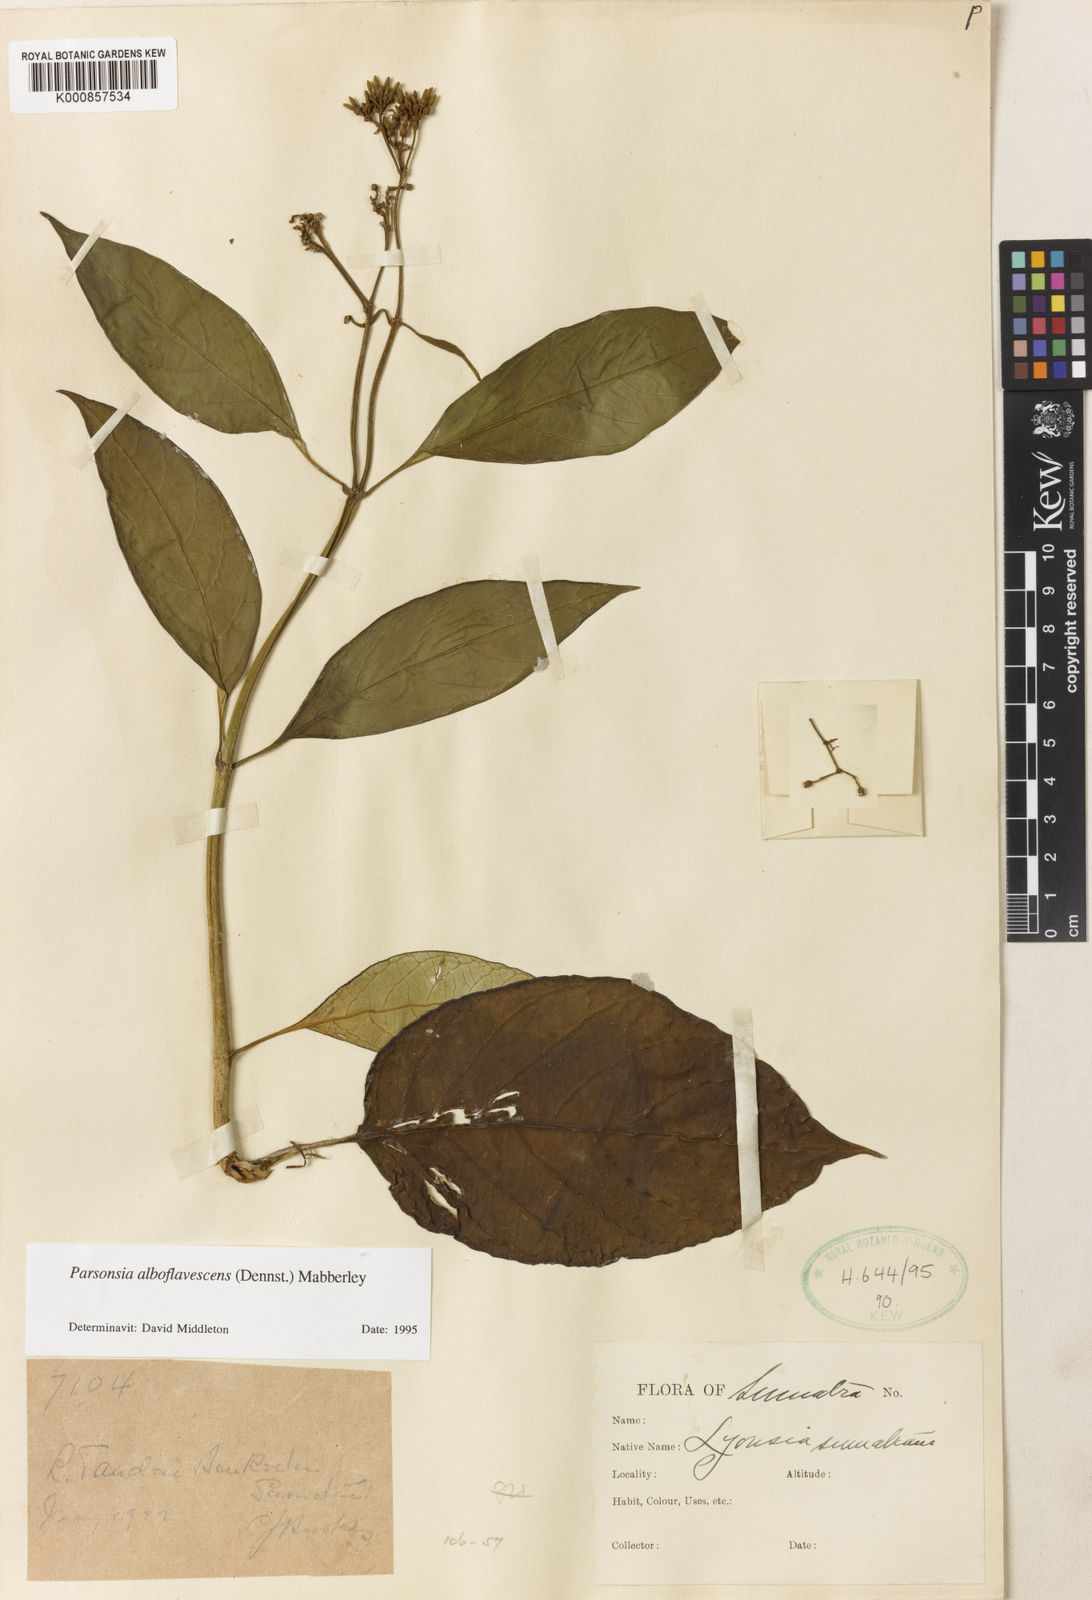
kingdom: Plantae
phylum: Tracheophyta
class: Magnoliopsida
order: Gentianales
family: Apocynaceae
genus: Parsonsia
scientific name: Parsonsia alboflavescens
